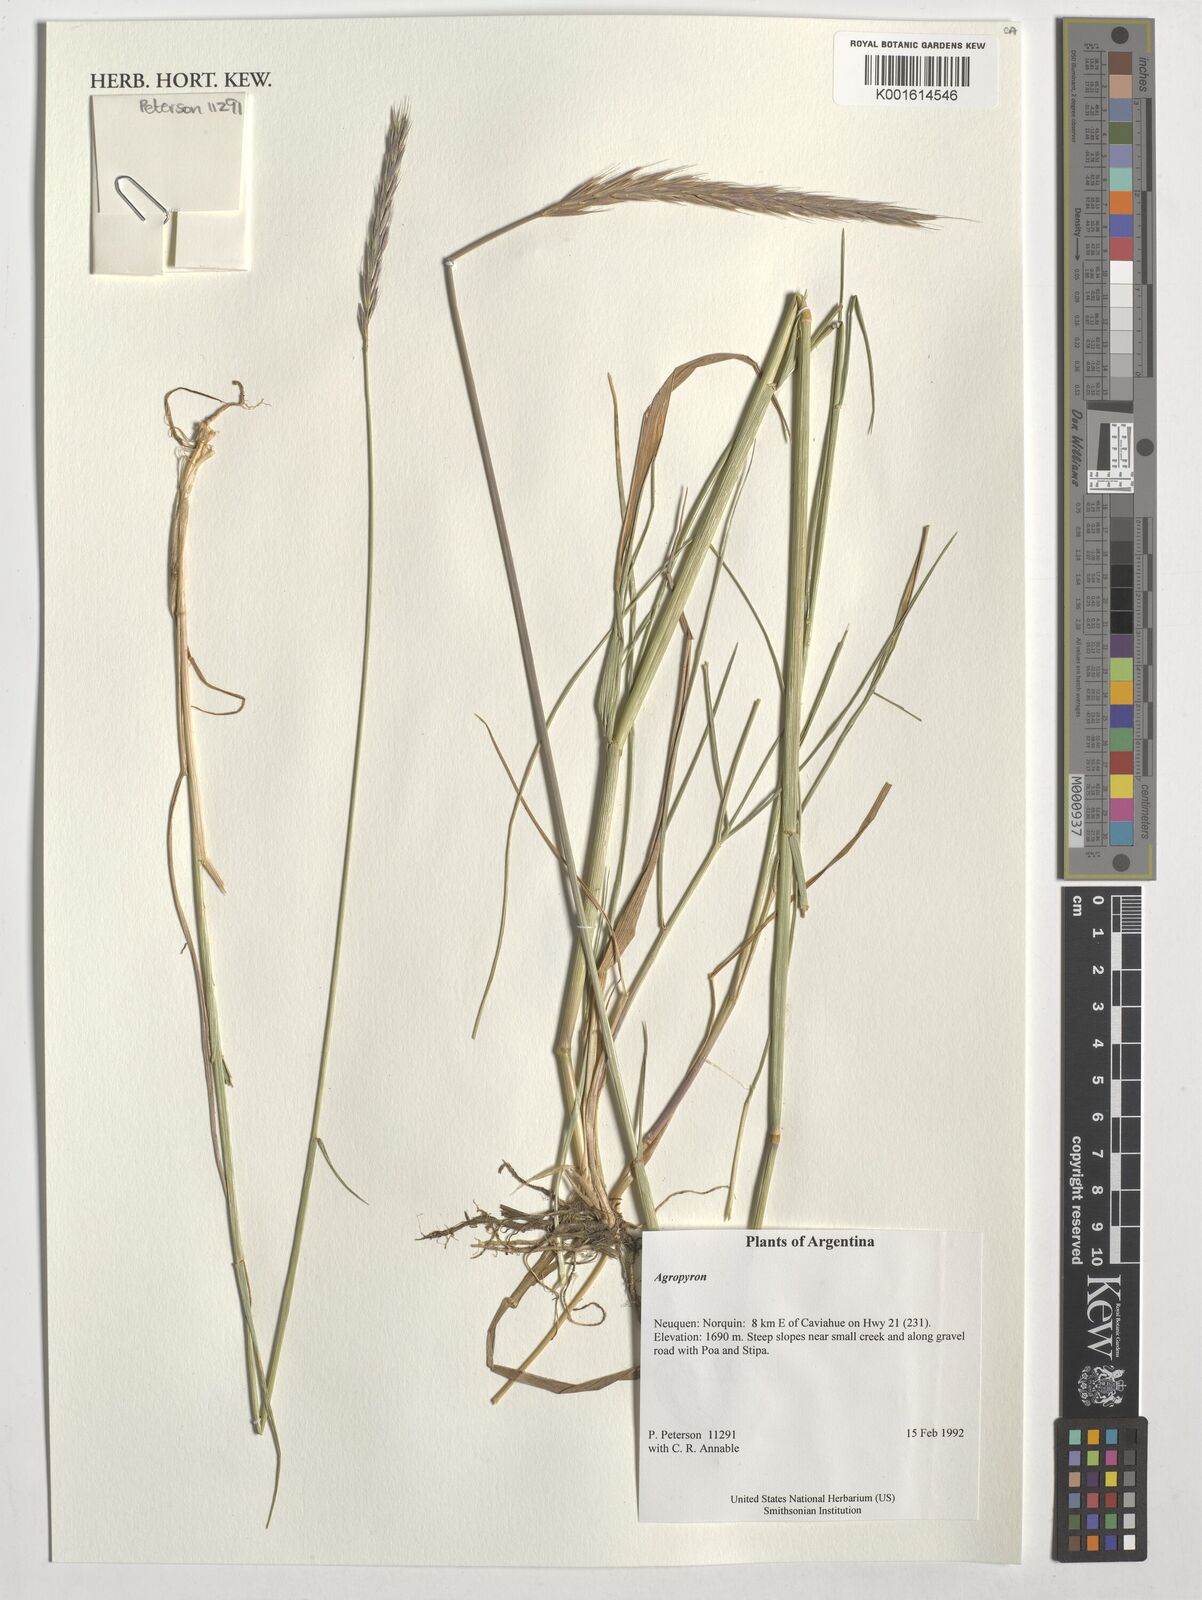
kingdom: Plantae
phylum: Tracheophyta
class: Liliopsida
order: Poales
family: Poaceae
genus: Agropyron
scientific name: Agropyron
